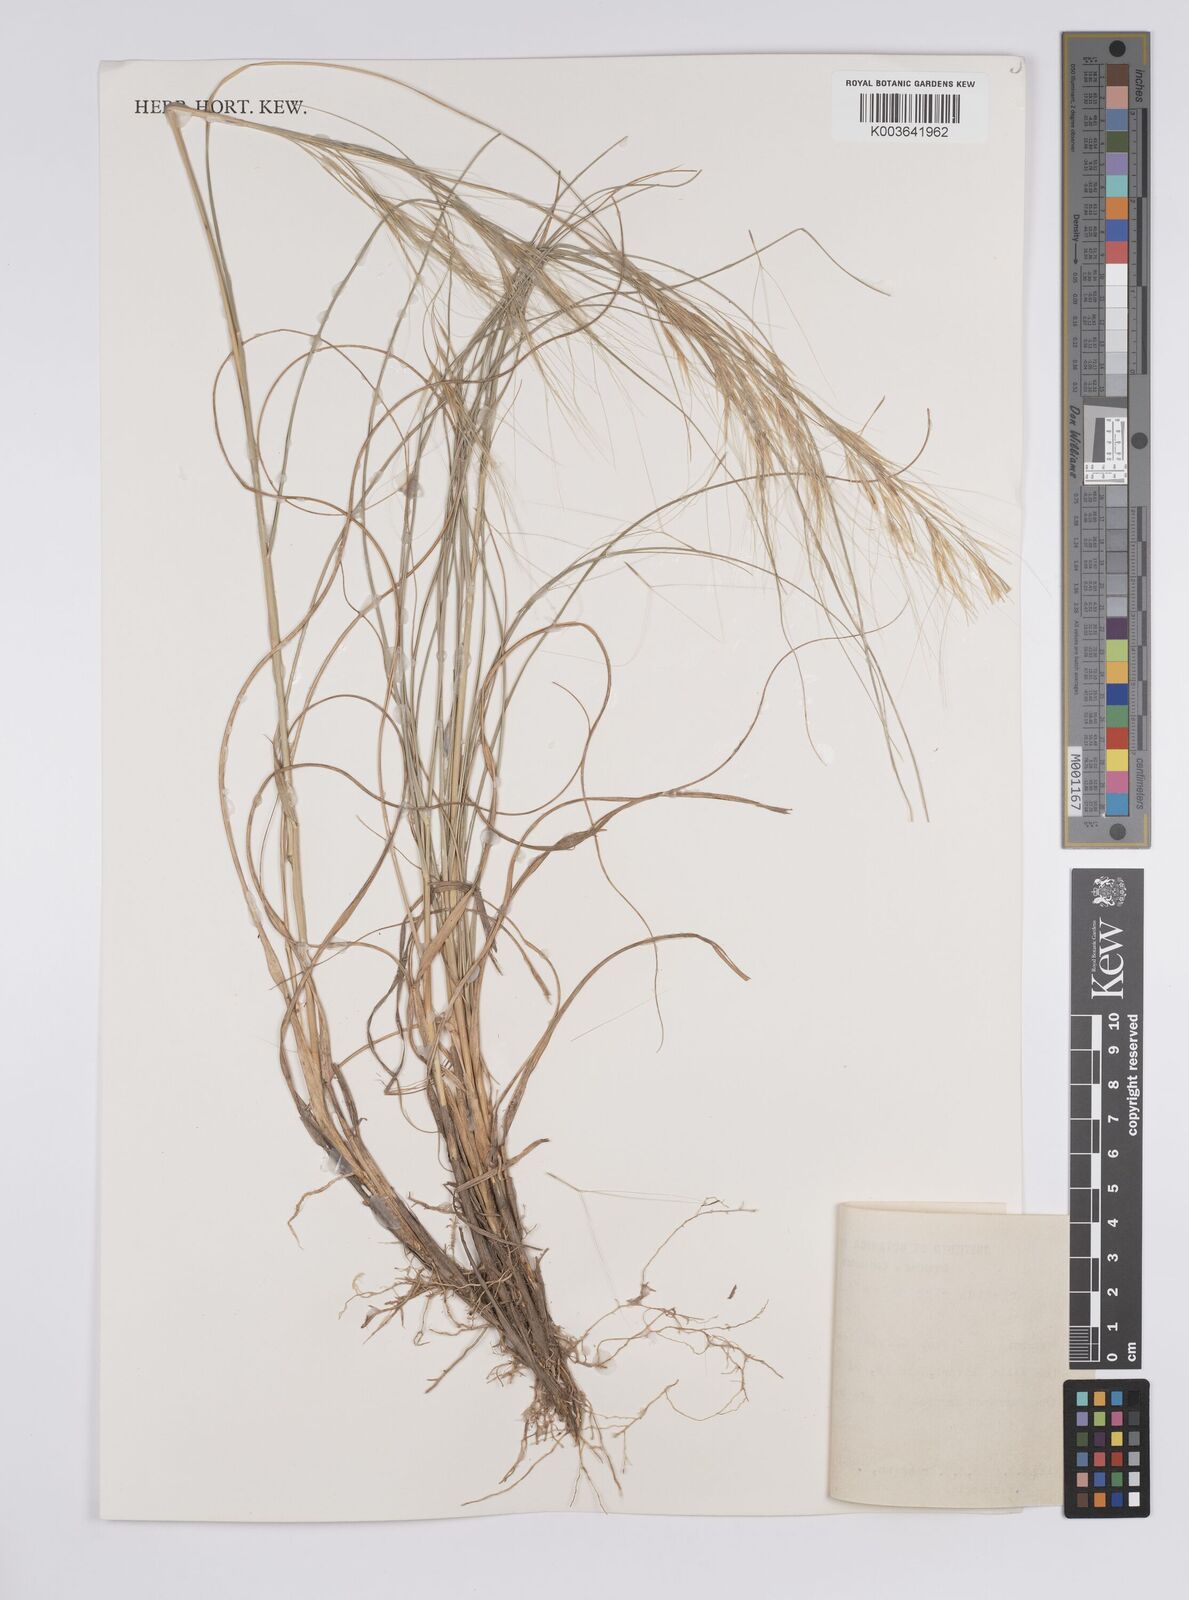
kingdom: Plantae
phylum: Tracheophyta
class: Liliopsida
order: Poales
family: Poaceae
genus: Aristida
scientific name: Aristida circinalis
